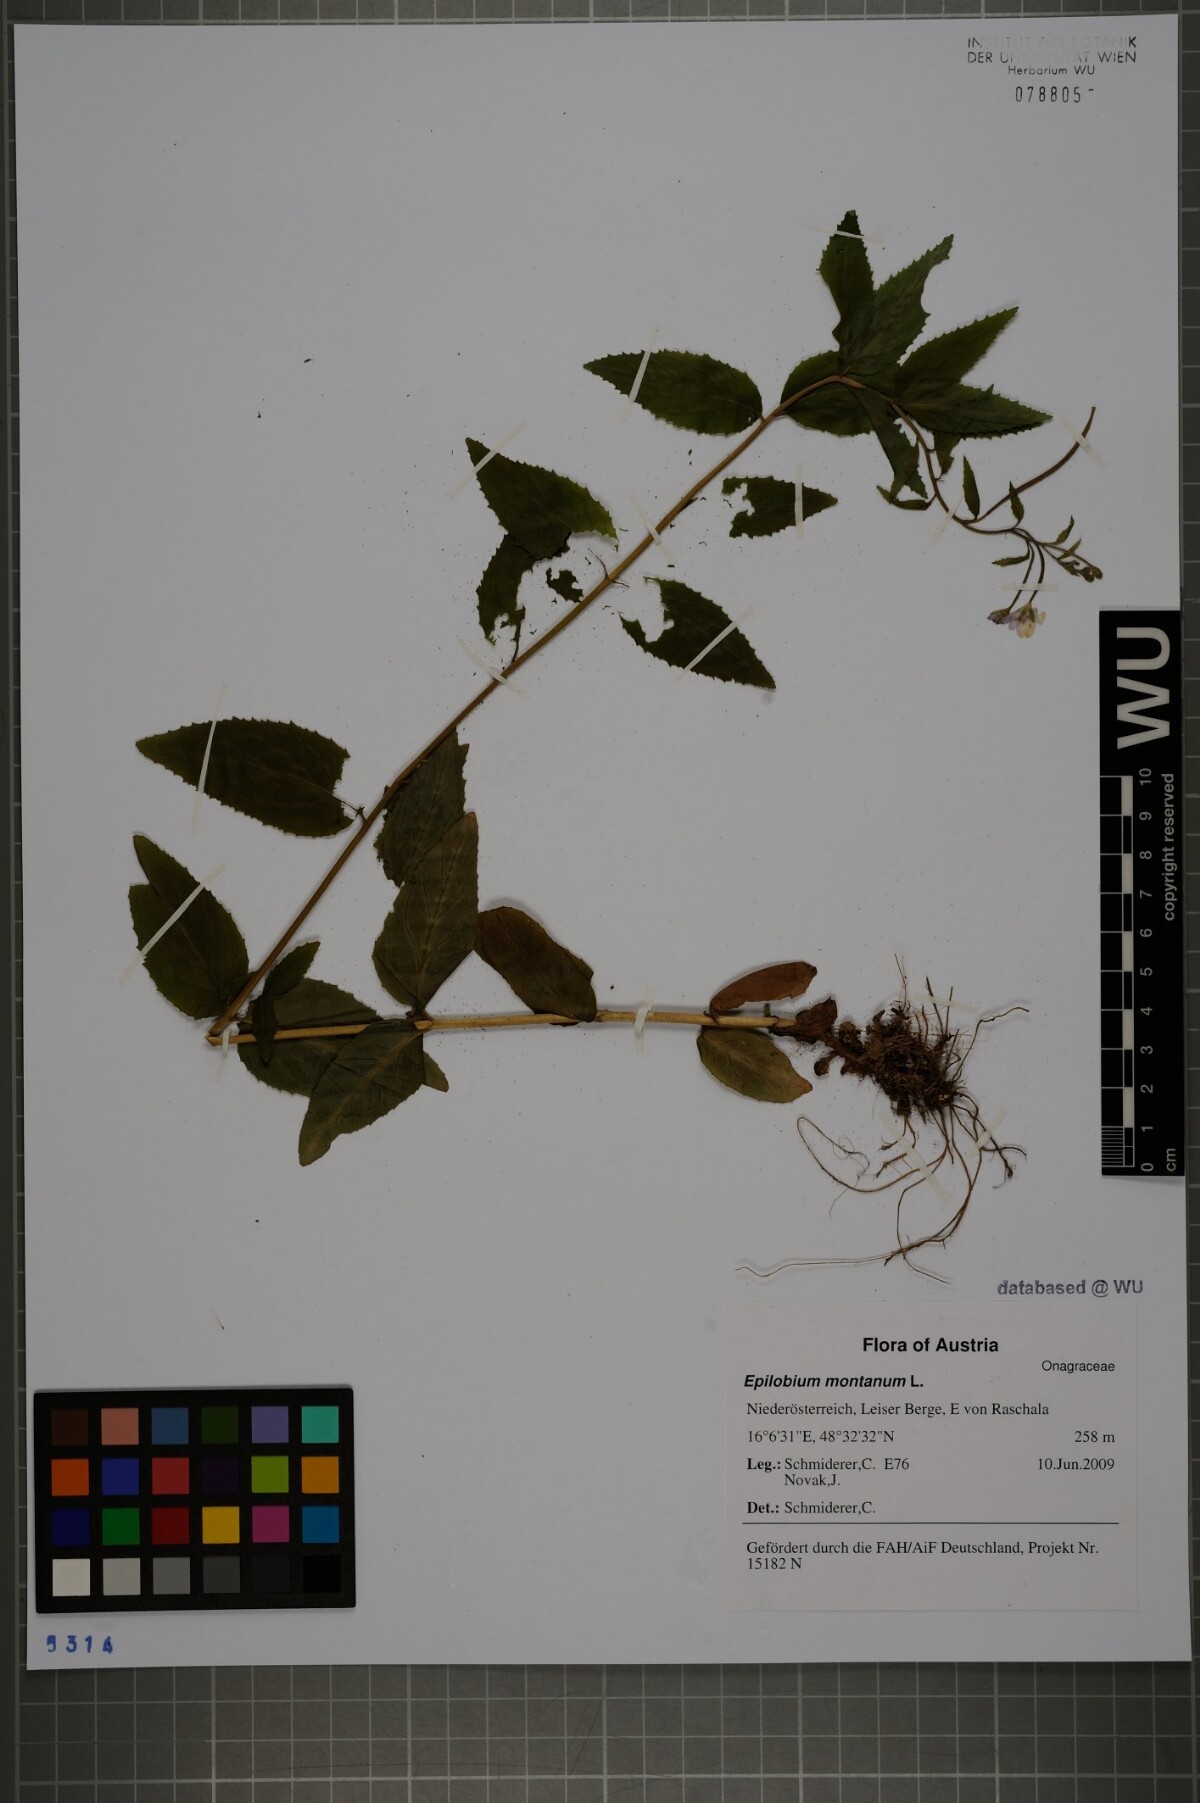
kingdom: Plantae
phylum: Tracheophyta
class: Magnoliopsida
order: Myrtales
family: Onagraceae
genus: Epilobium
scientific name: Epilobium montanum
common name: Broad-leaved willowherb
